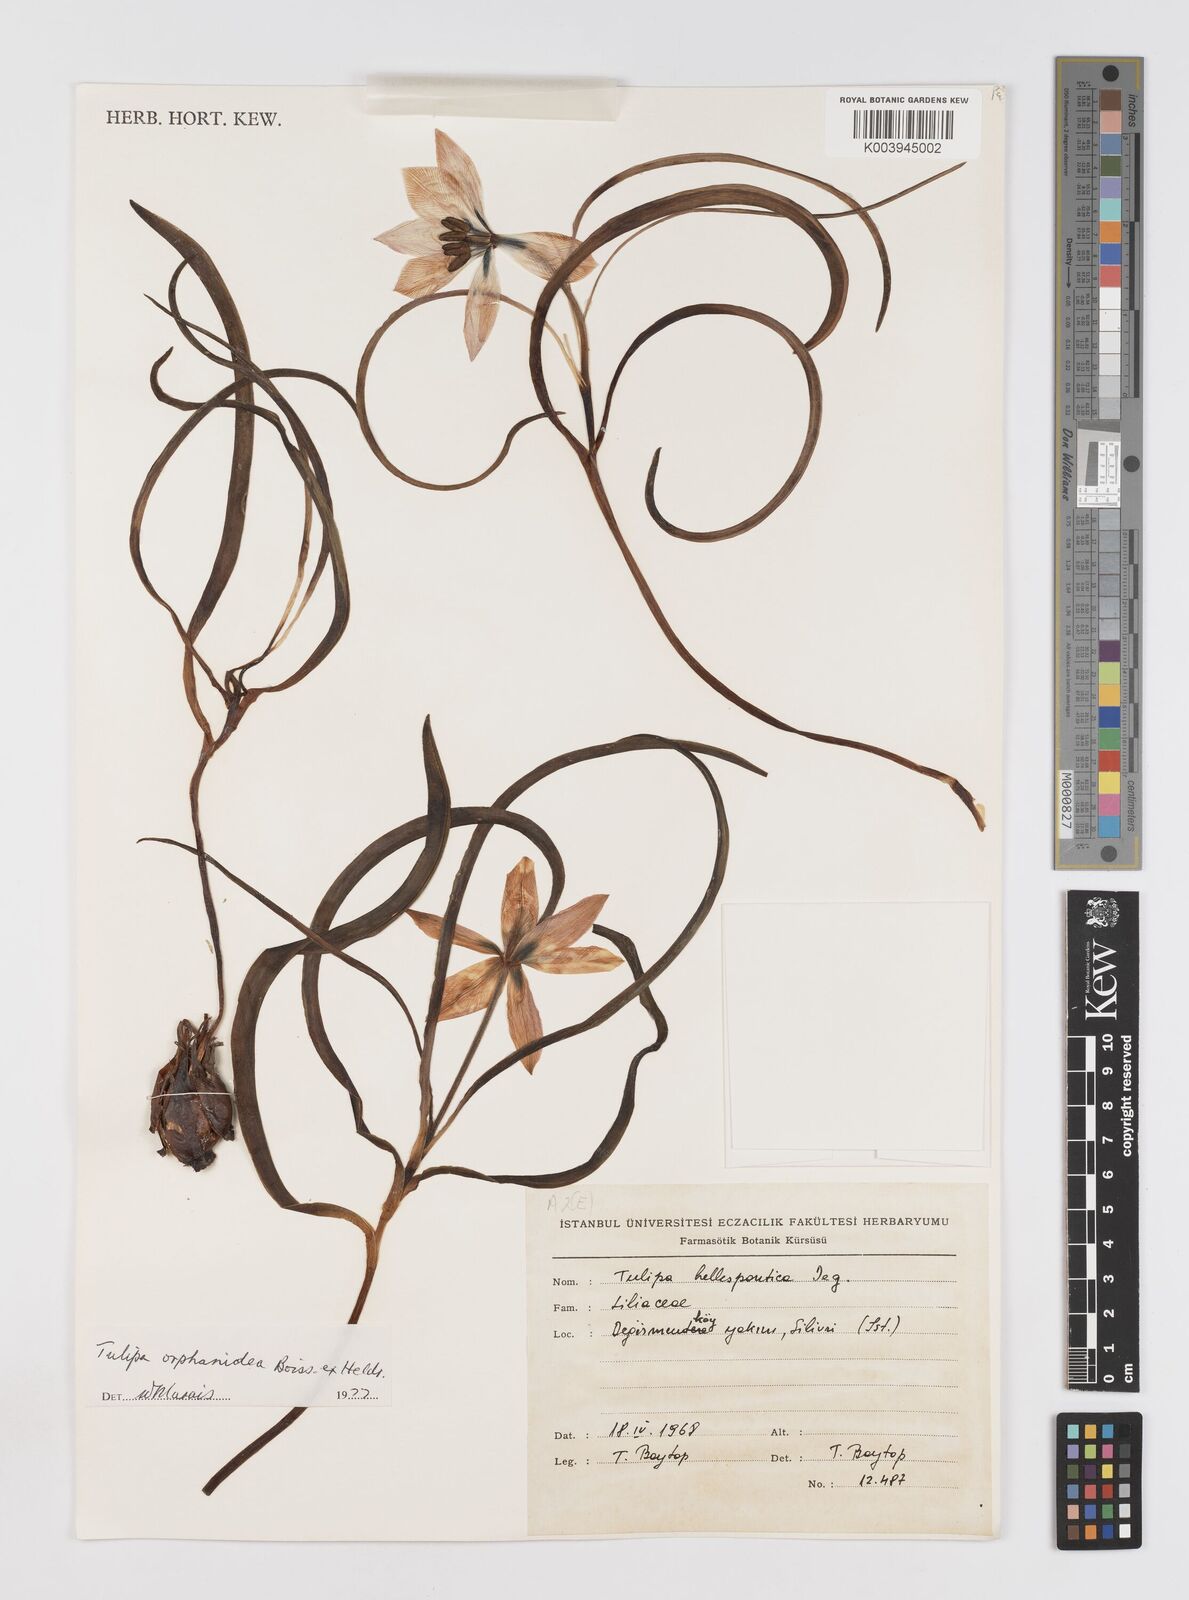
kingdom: Plantae
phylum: Tracheophyta
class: Liliopsida
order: Liliales
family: Liliaceae
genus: Tulipa
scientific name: Tulipa orphanidea
